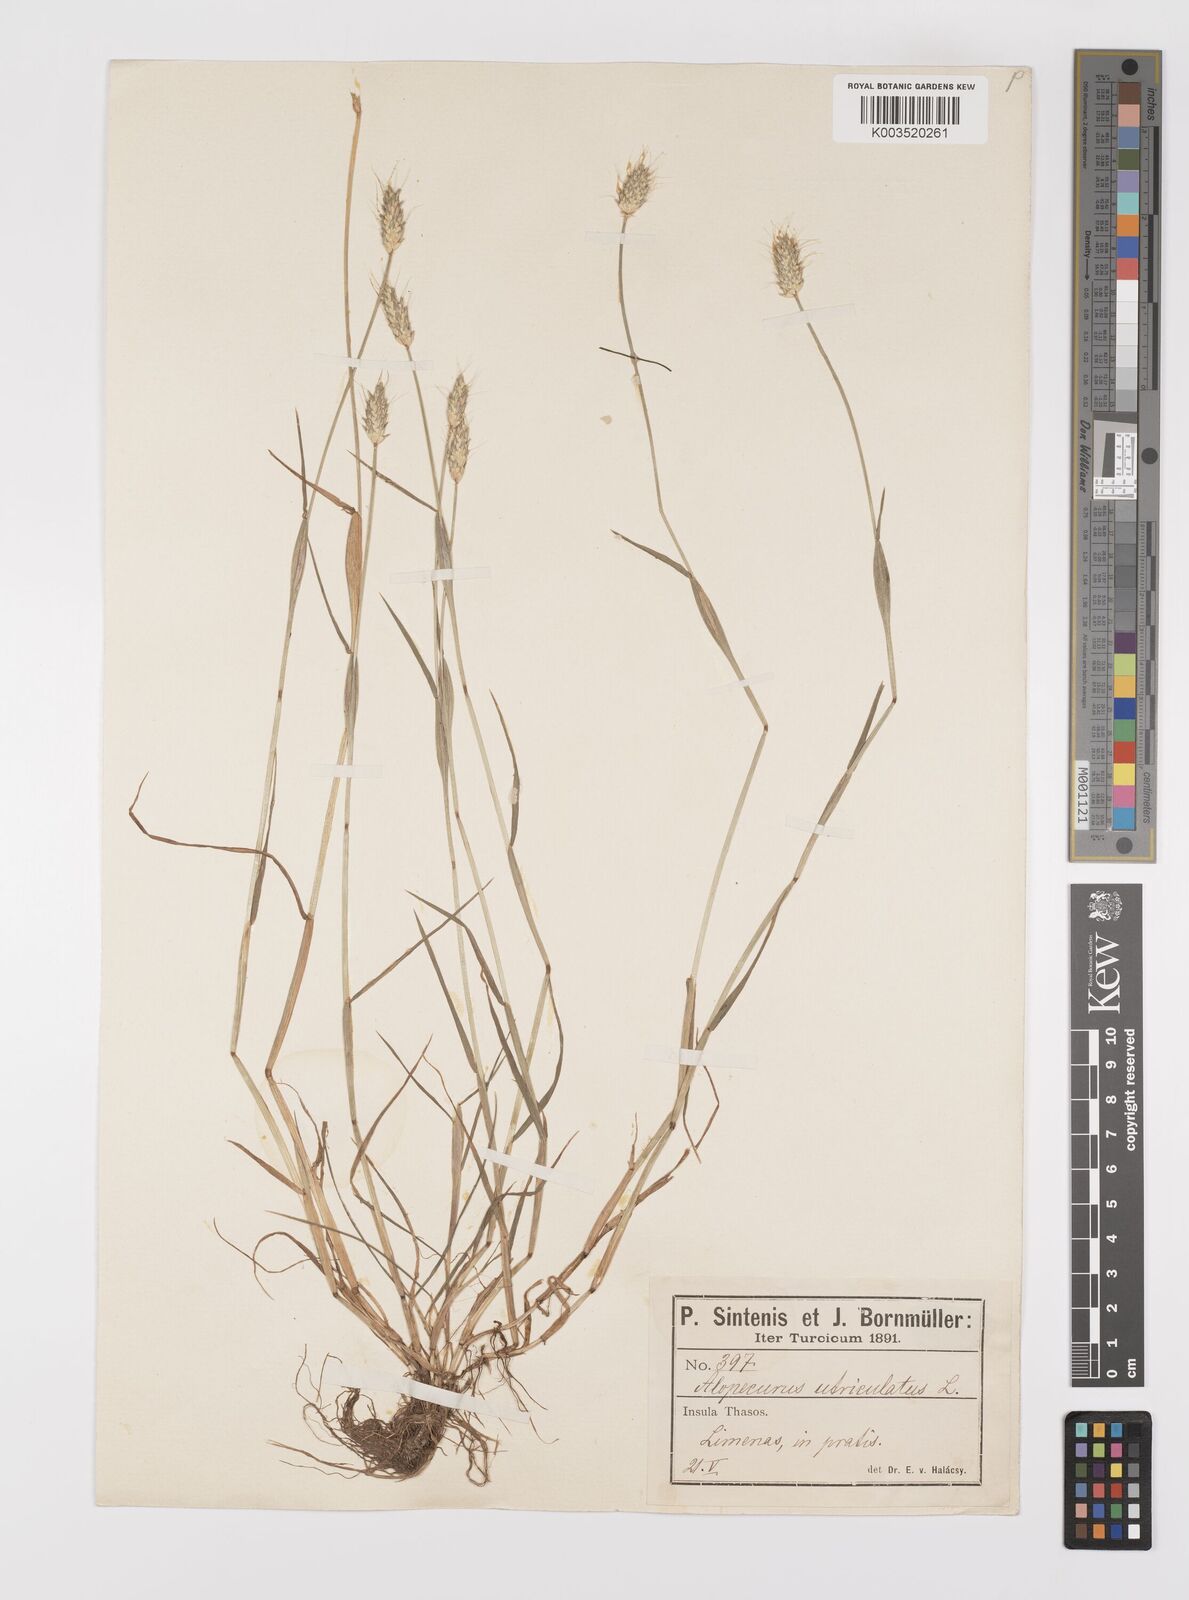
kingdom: Plantae
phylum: Tracheophyta
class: Liliopsida
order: Poales
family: Poaceae
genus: Alopecurus
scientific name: Alopecurus rendlei
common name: Rendle's meadow foxtail
